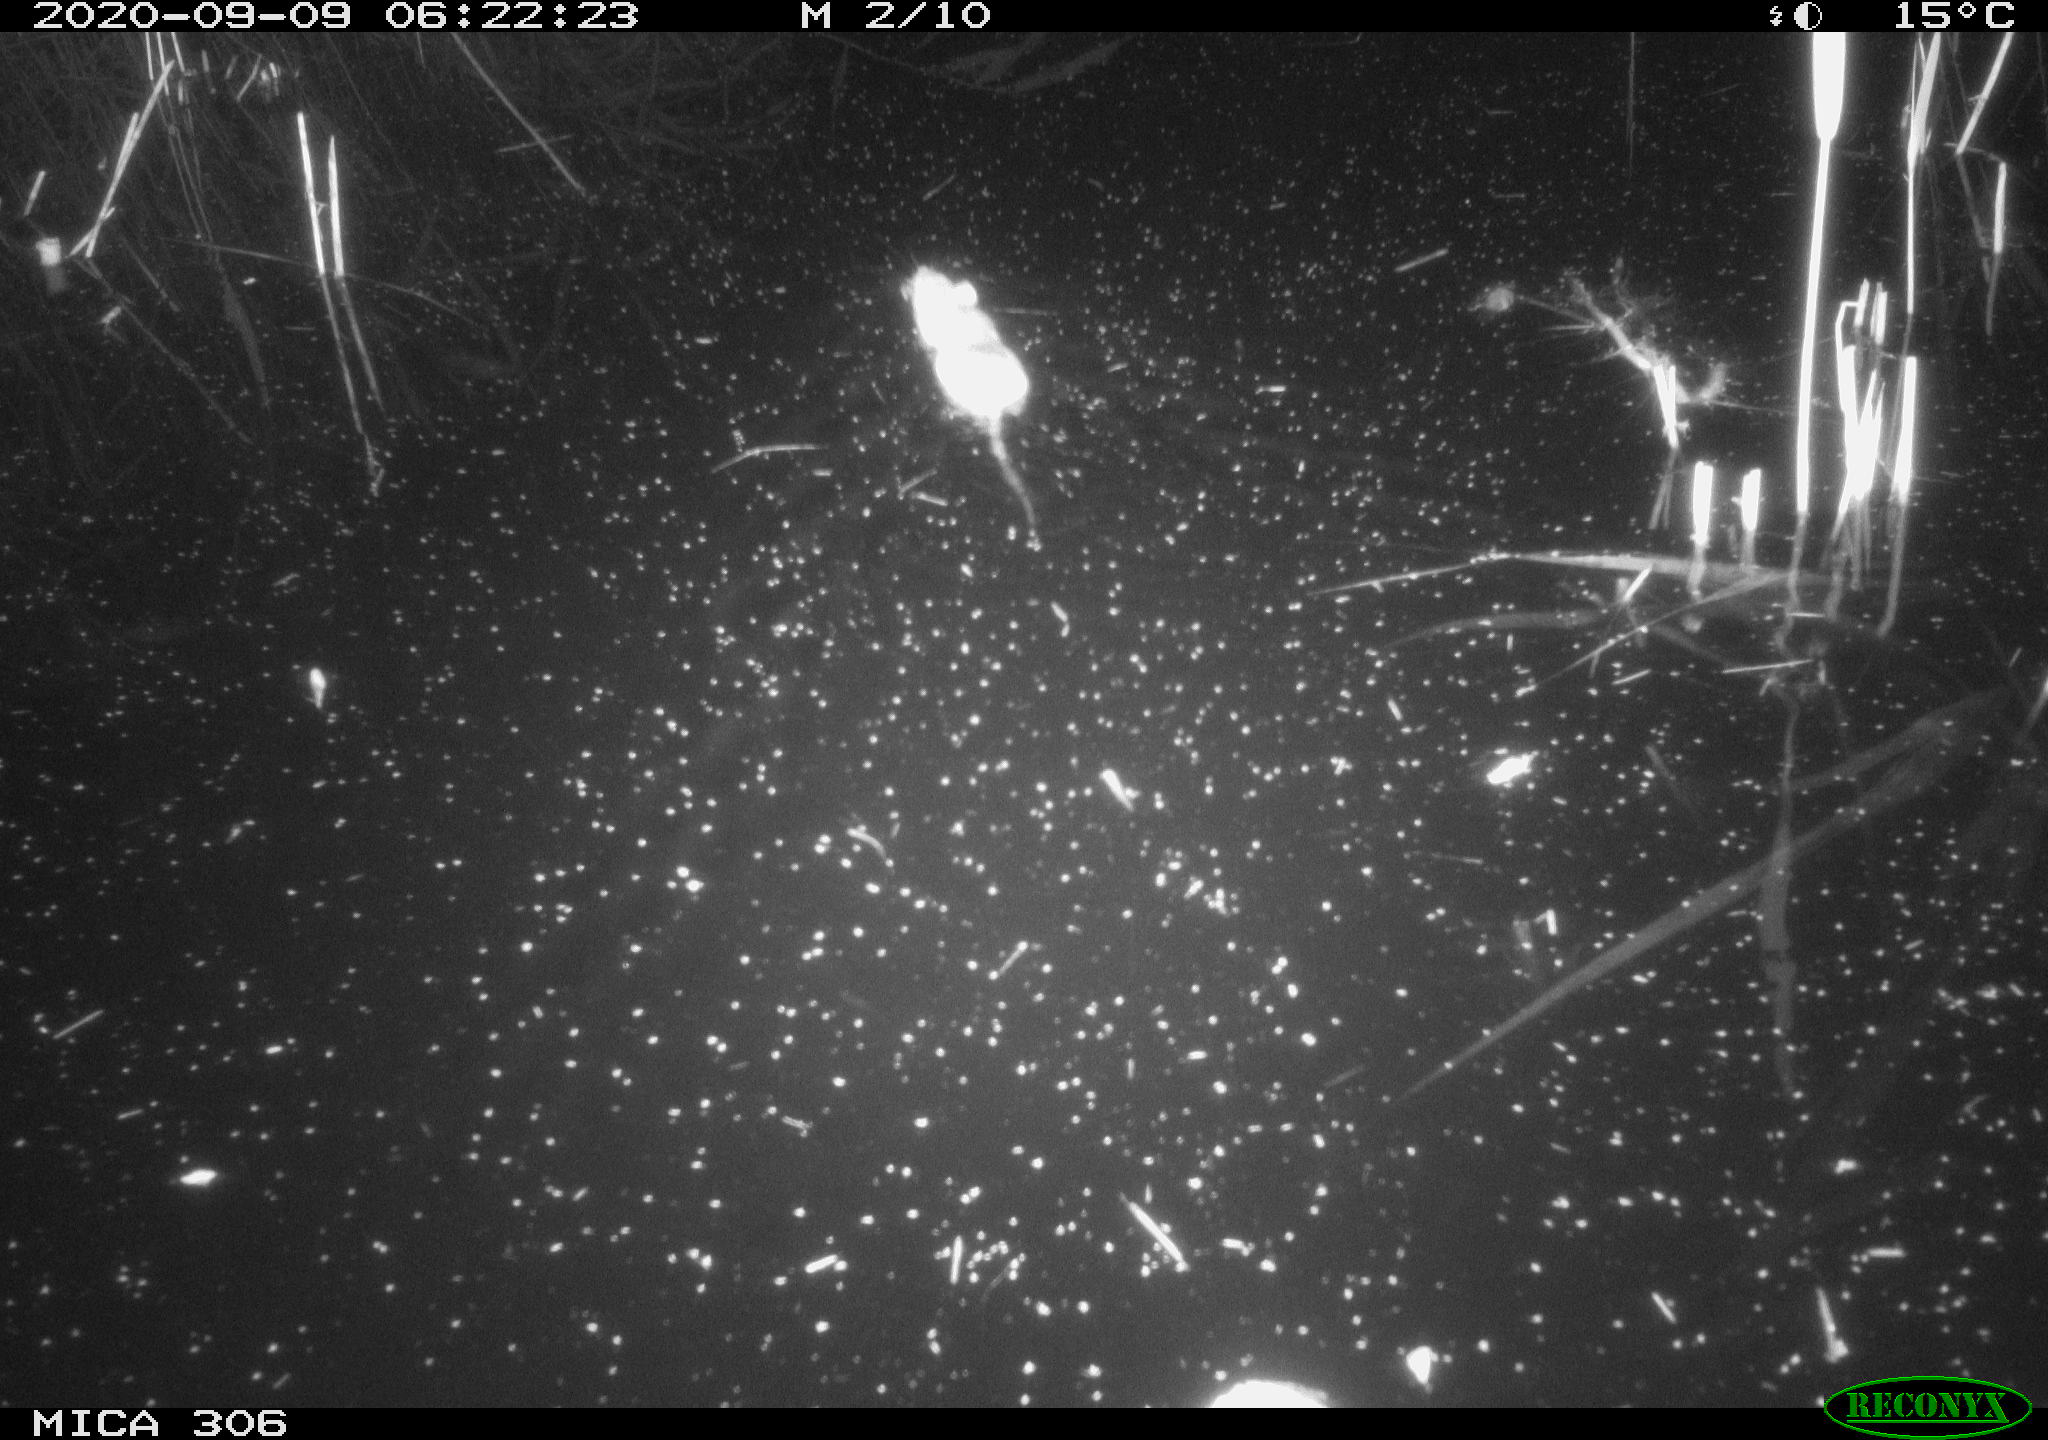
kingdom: Animalia
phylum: Chordata
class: Mammalia
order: Rodentia
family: Muridae
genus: Rattus
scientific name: Rattus norvegicus
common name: Brown rat
